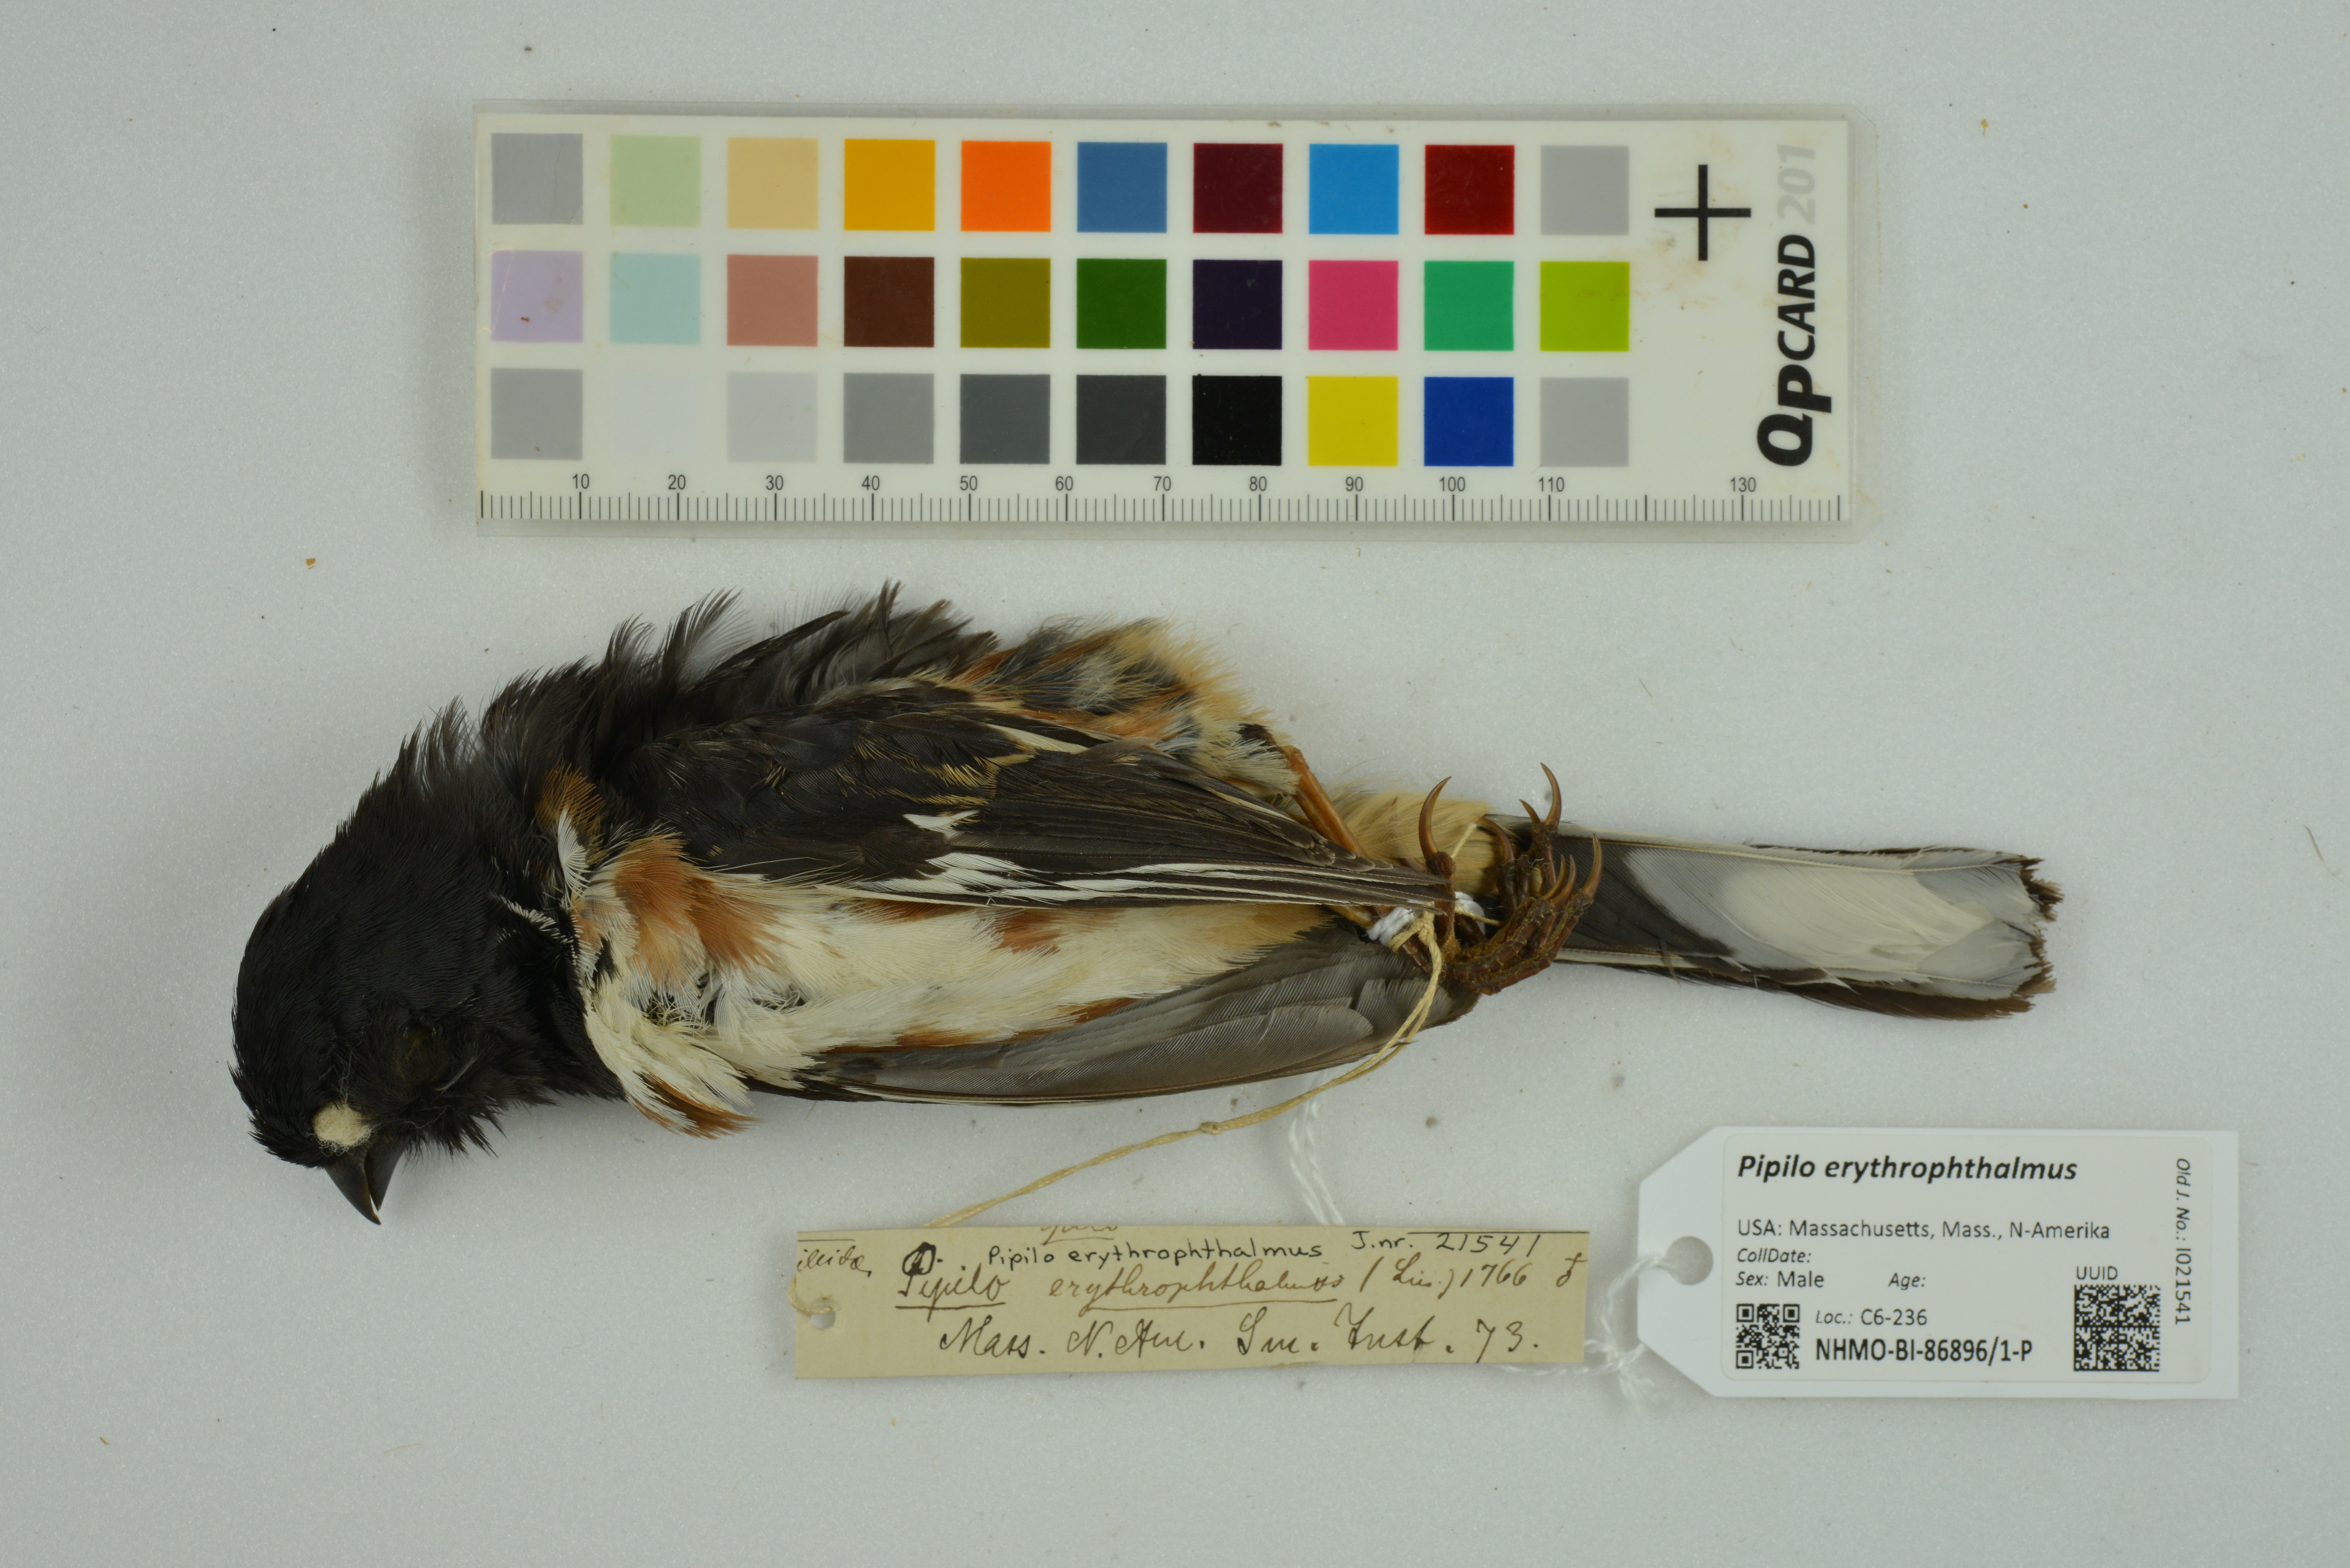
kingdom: Animalia
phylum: Chordata
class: Aves
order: Passeriformes
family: Passerellidae
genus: Pipilo
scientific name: Pipilo erythrophthalmus
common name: Eastern towhee
